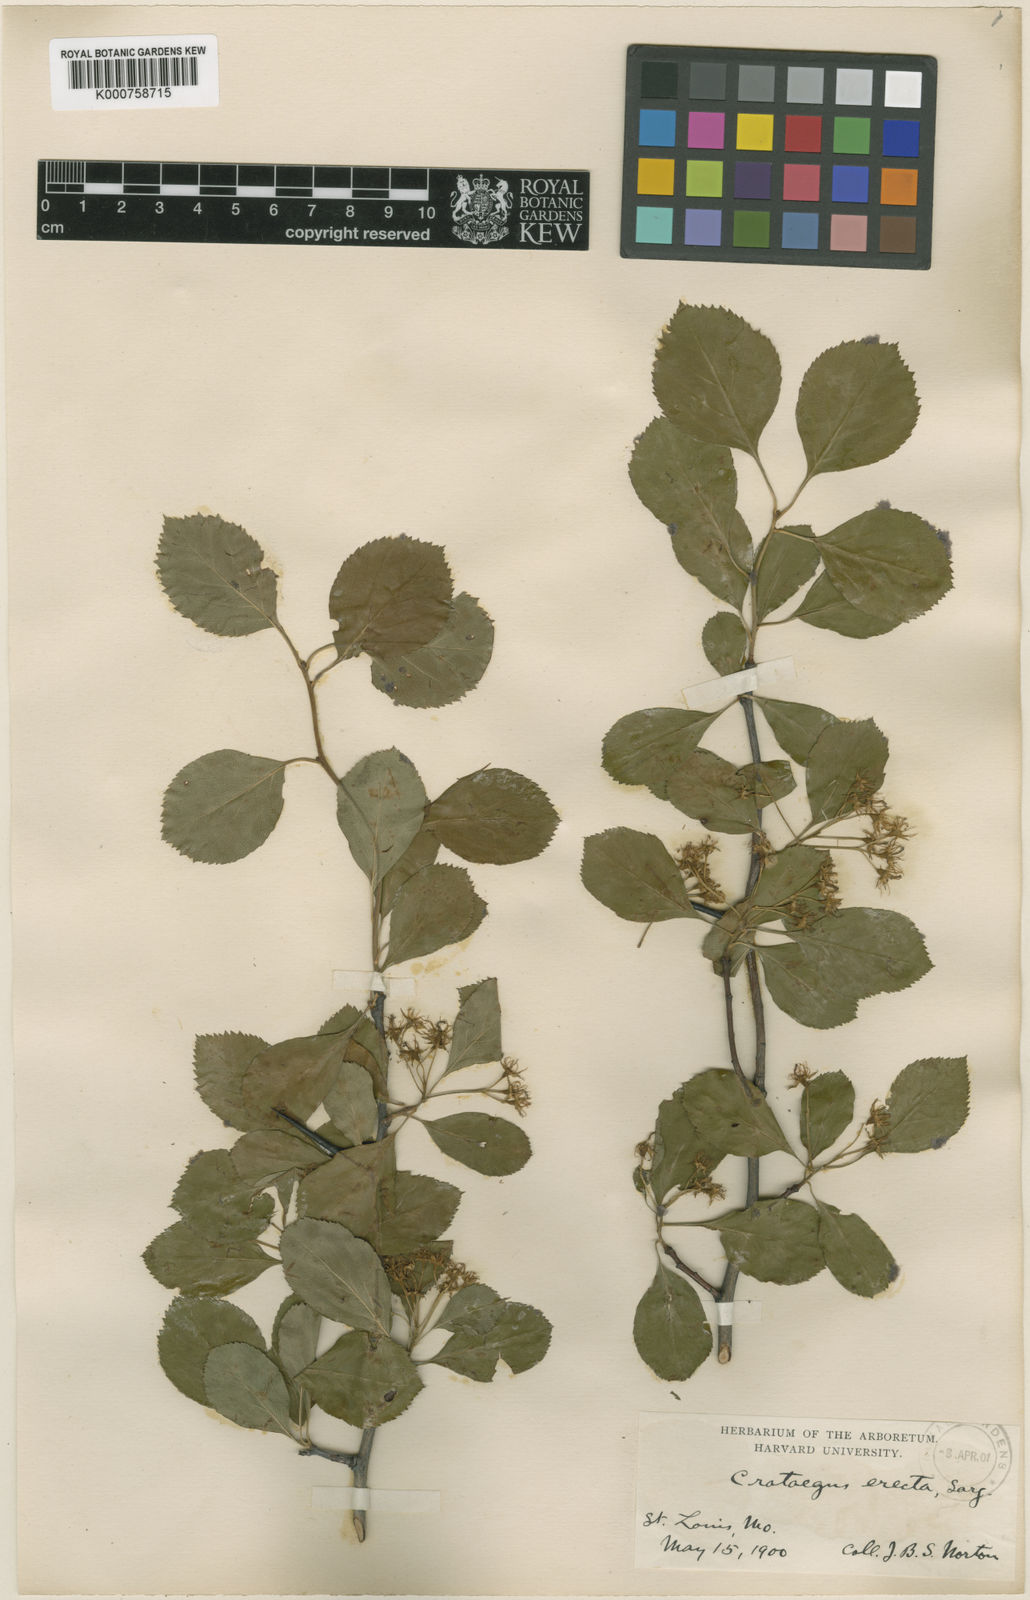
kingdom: Plantae
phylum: Tracheophyta
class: Magnoliopsida
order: Rosales
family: Rosaceae
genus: Crataegus
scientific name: Crataegus erecta
